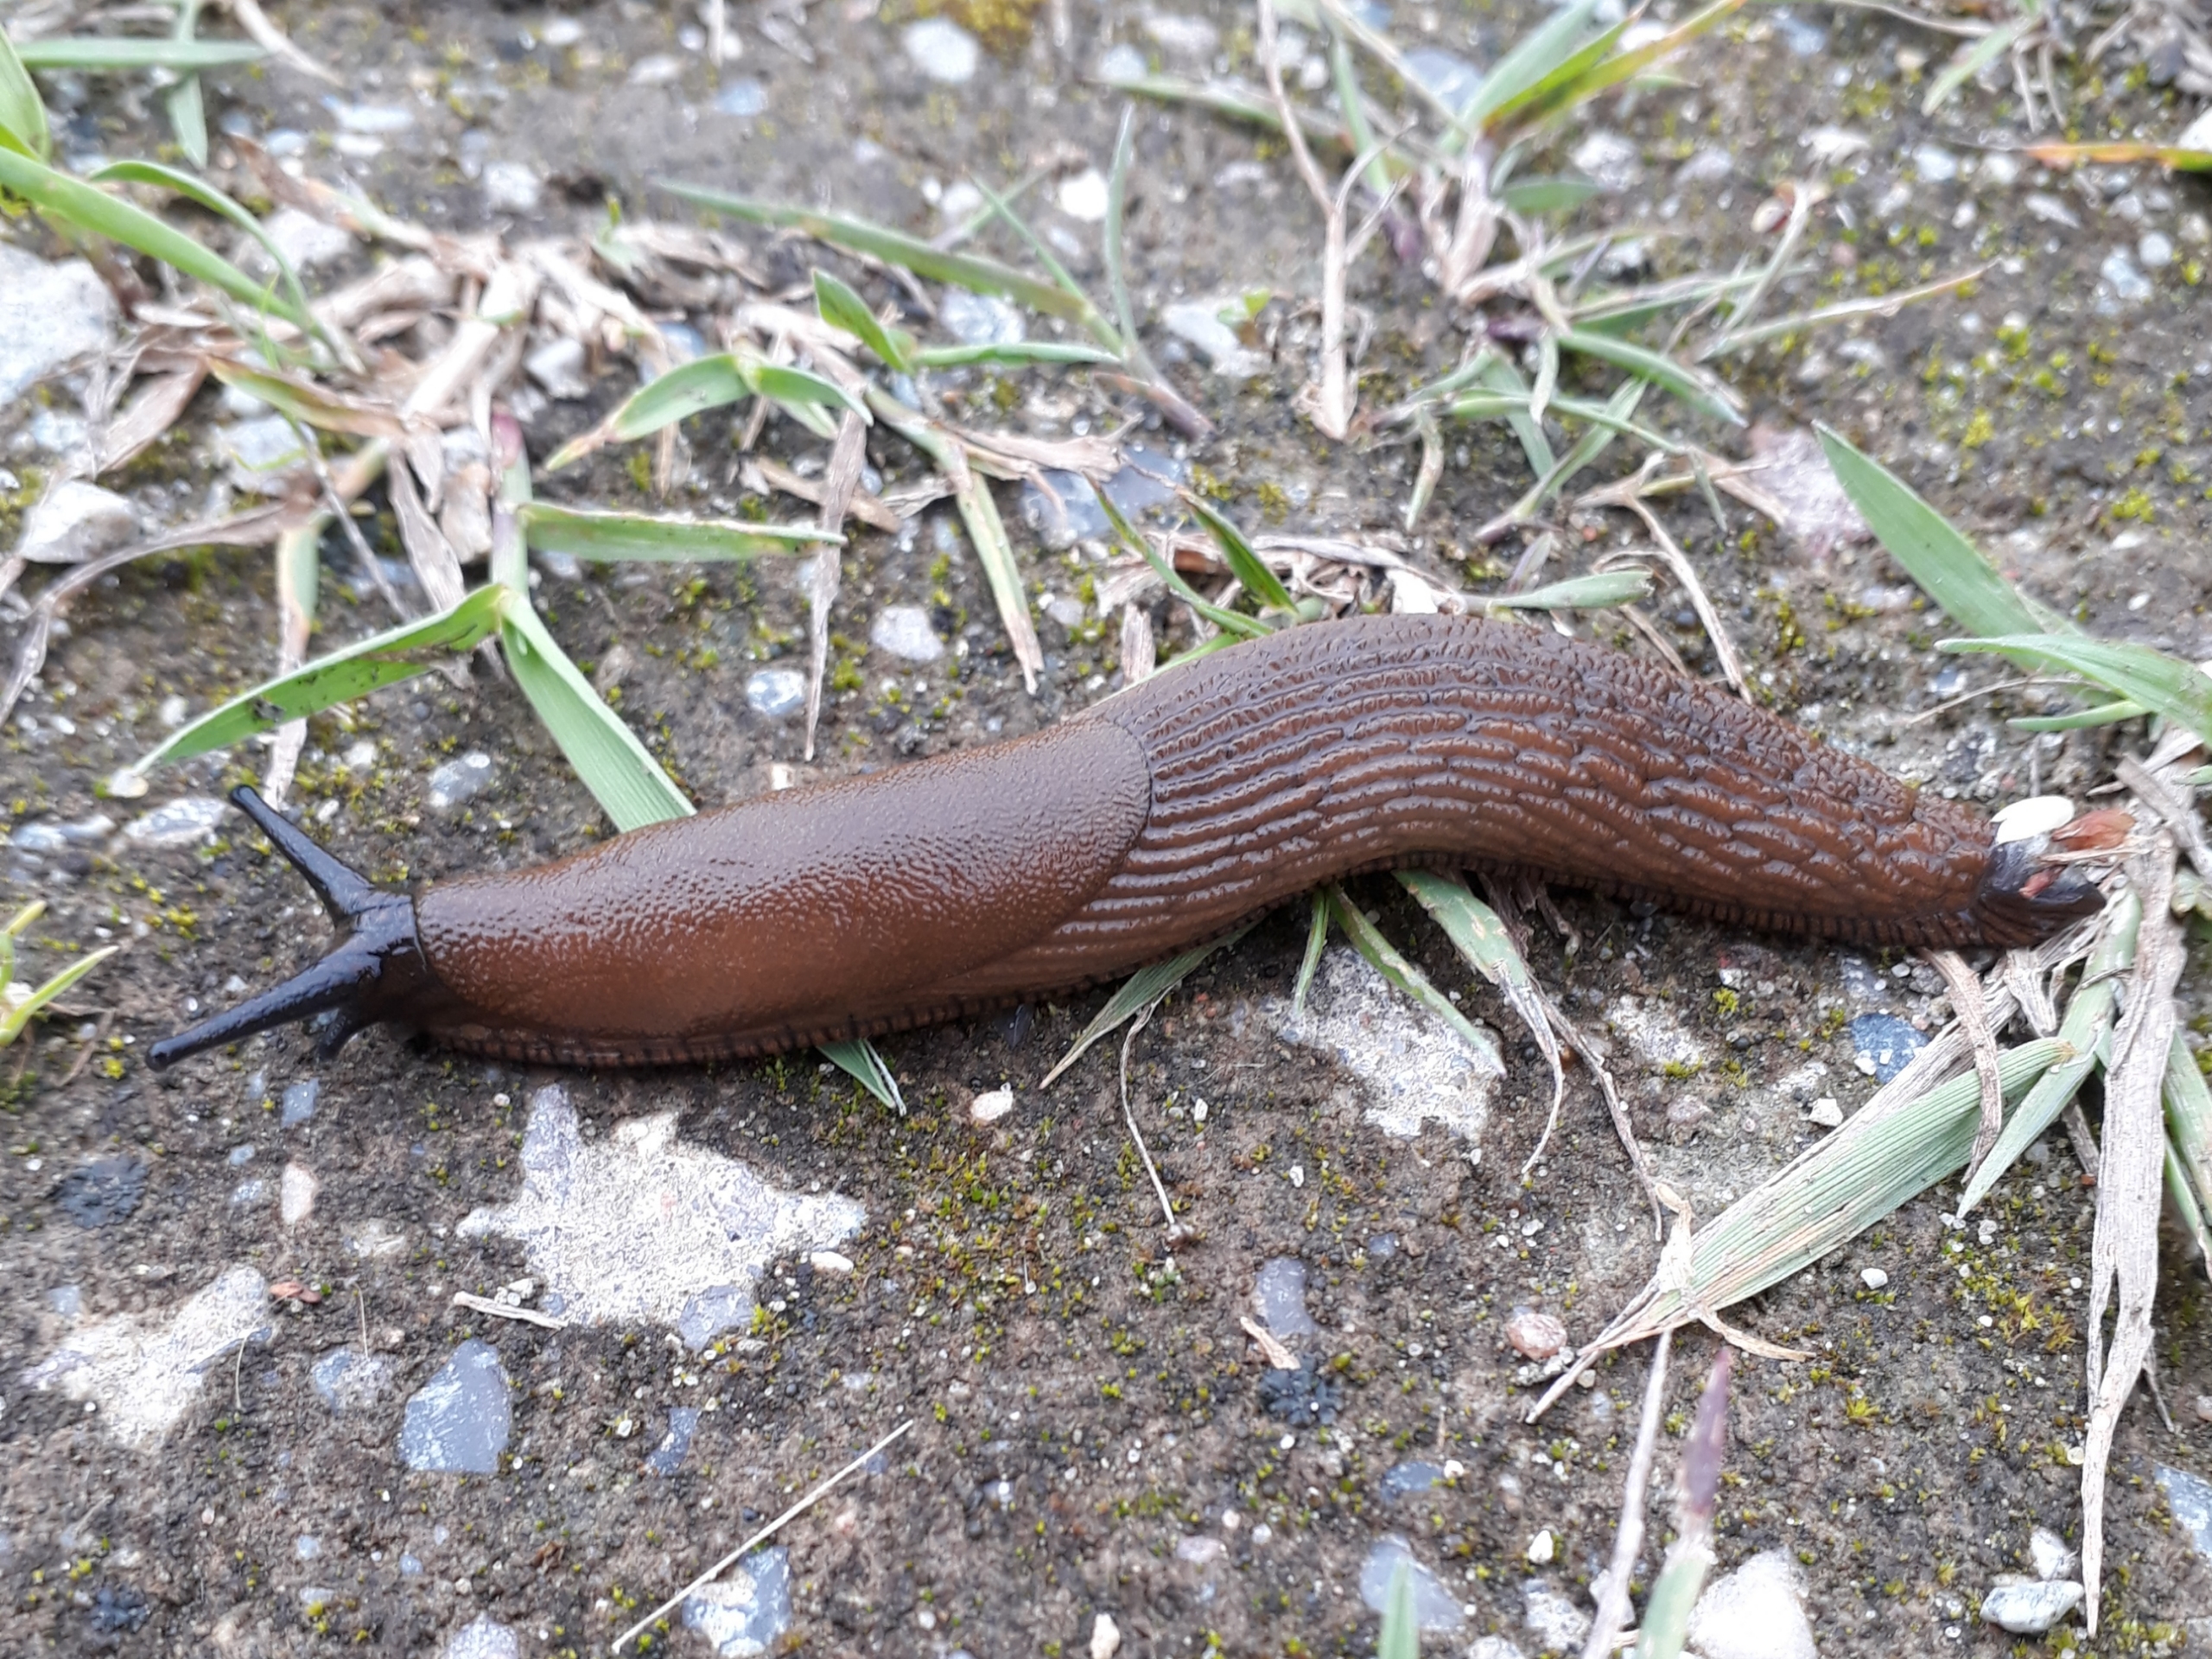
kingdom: Animalia
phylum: Mollusca
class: Gastropoda
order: Stylommatophora
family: Arionidae
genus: Arion
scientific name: Arion vulgaris
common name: Iberisk skovsnegl
